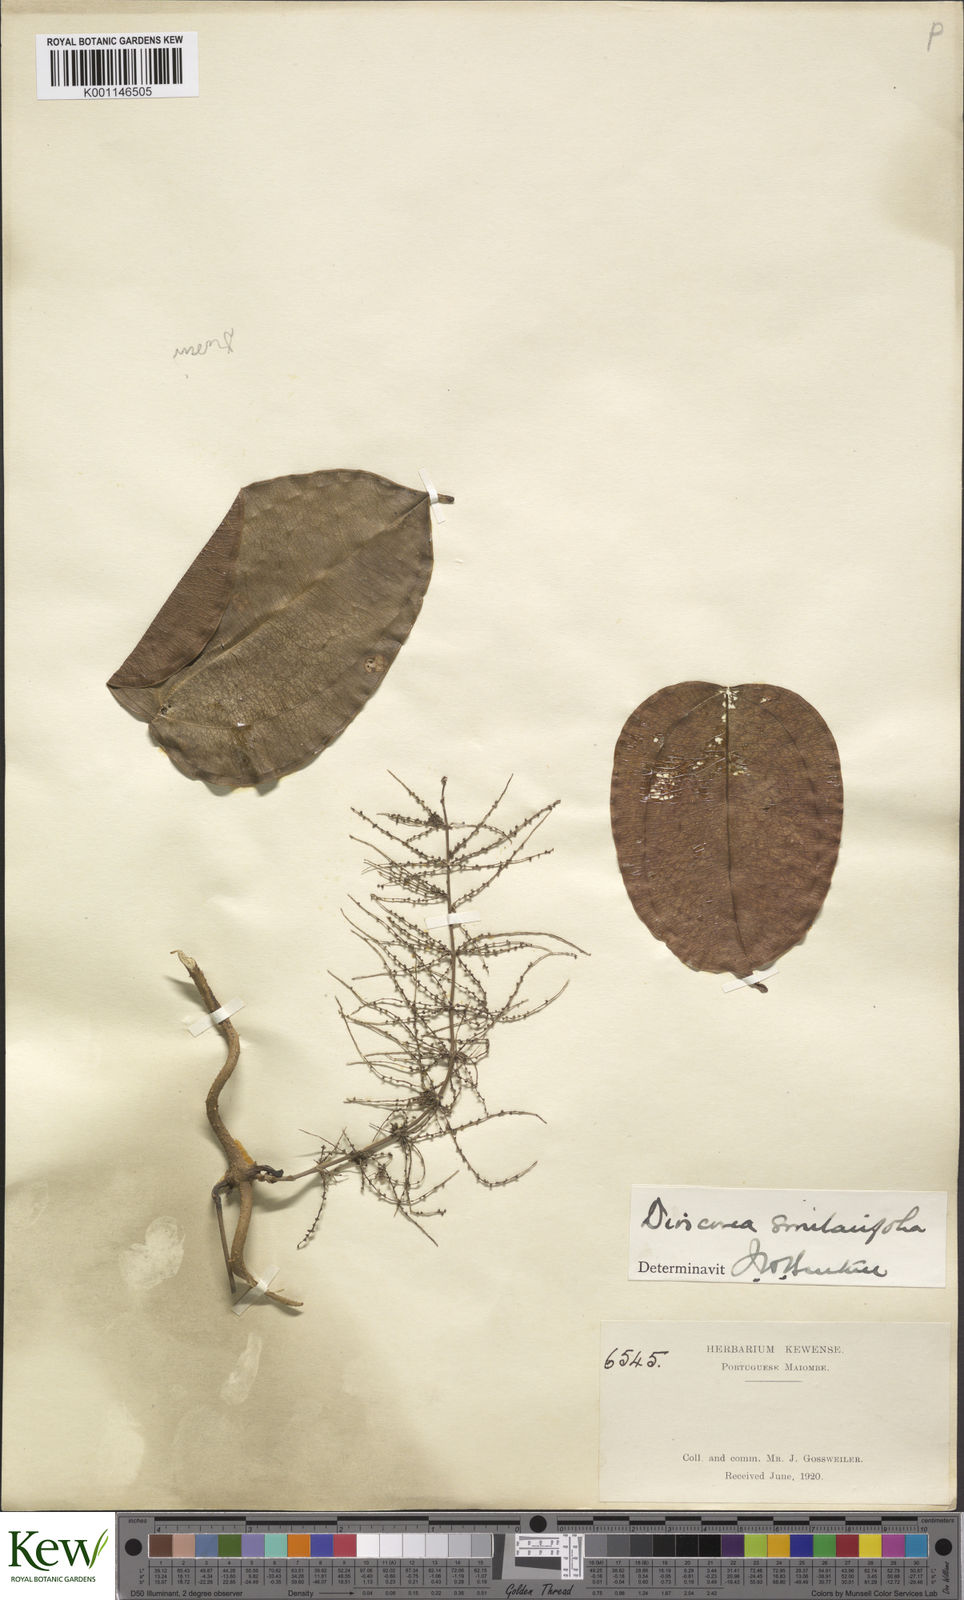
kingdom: Plantae
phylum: Tracheophyta
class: Liliopsida
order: Dioscoreales
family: Dioscoreaceae
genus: Dioscorea
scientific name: Dioscorea smilacifolia
